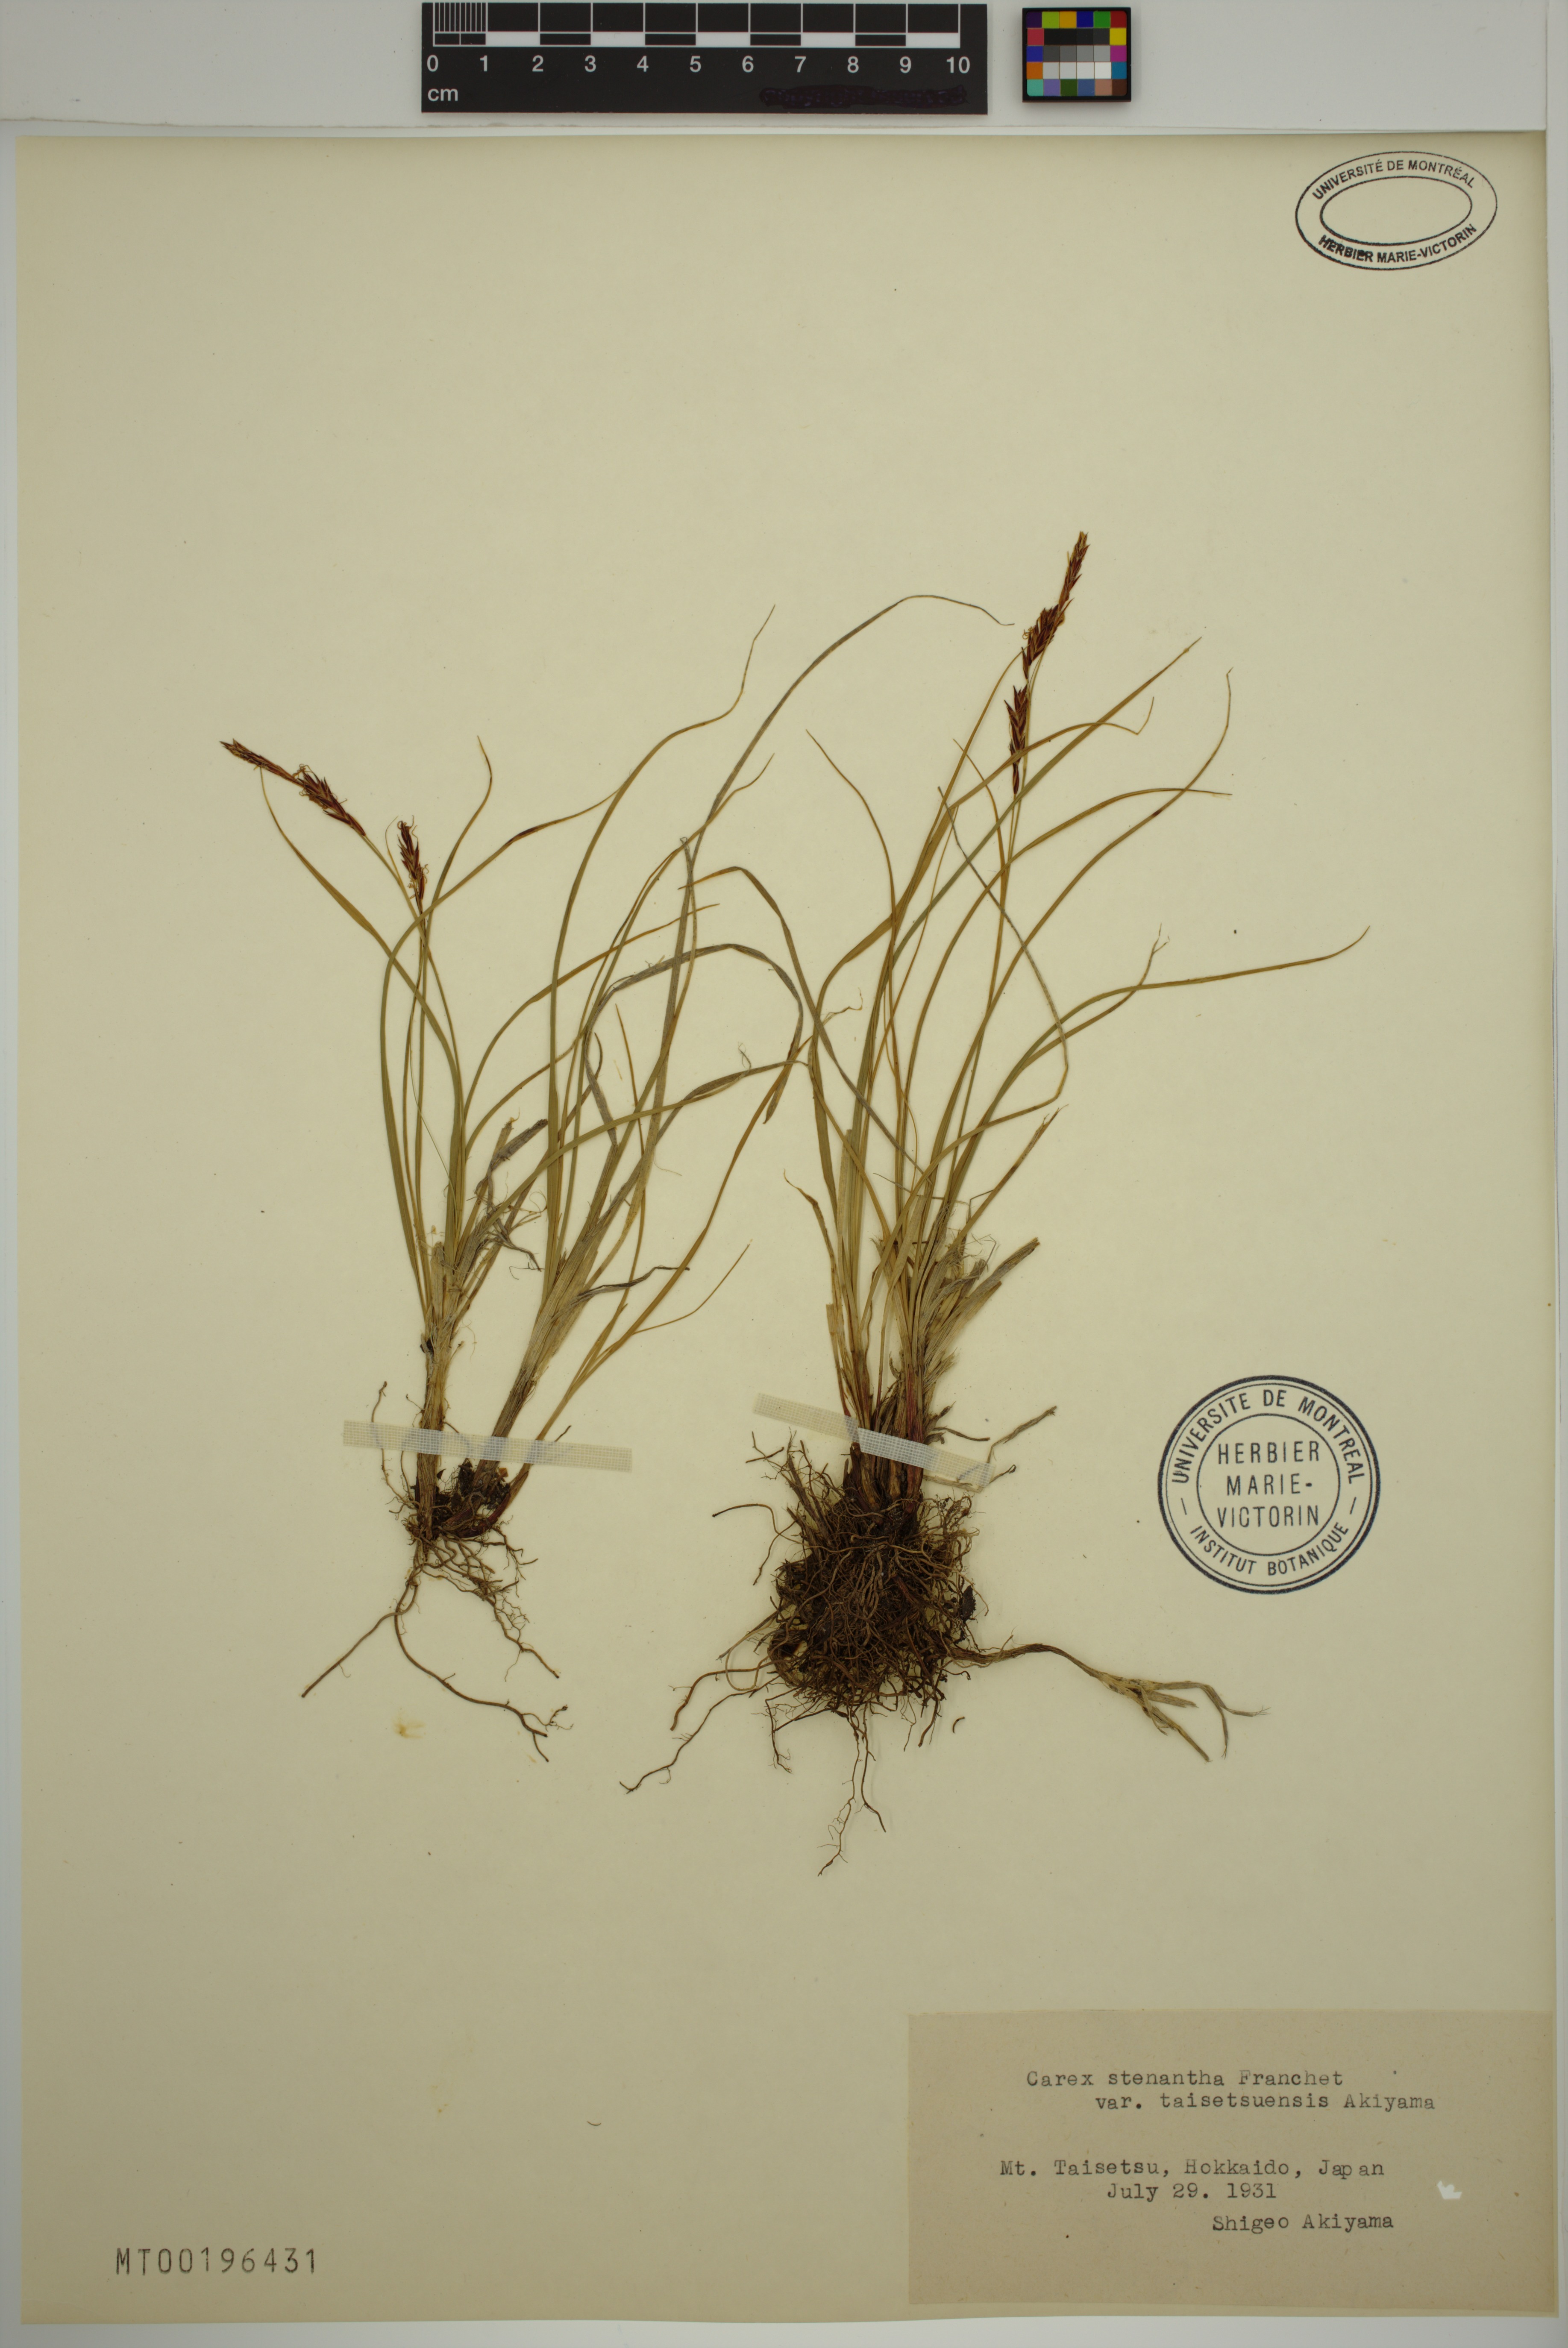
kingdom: Plantae
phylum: Tracheophyta
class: Liliopsida
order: Poales
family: Cyperaceae
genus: Carex
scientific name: Carex stenantha
